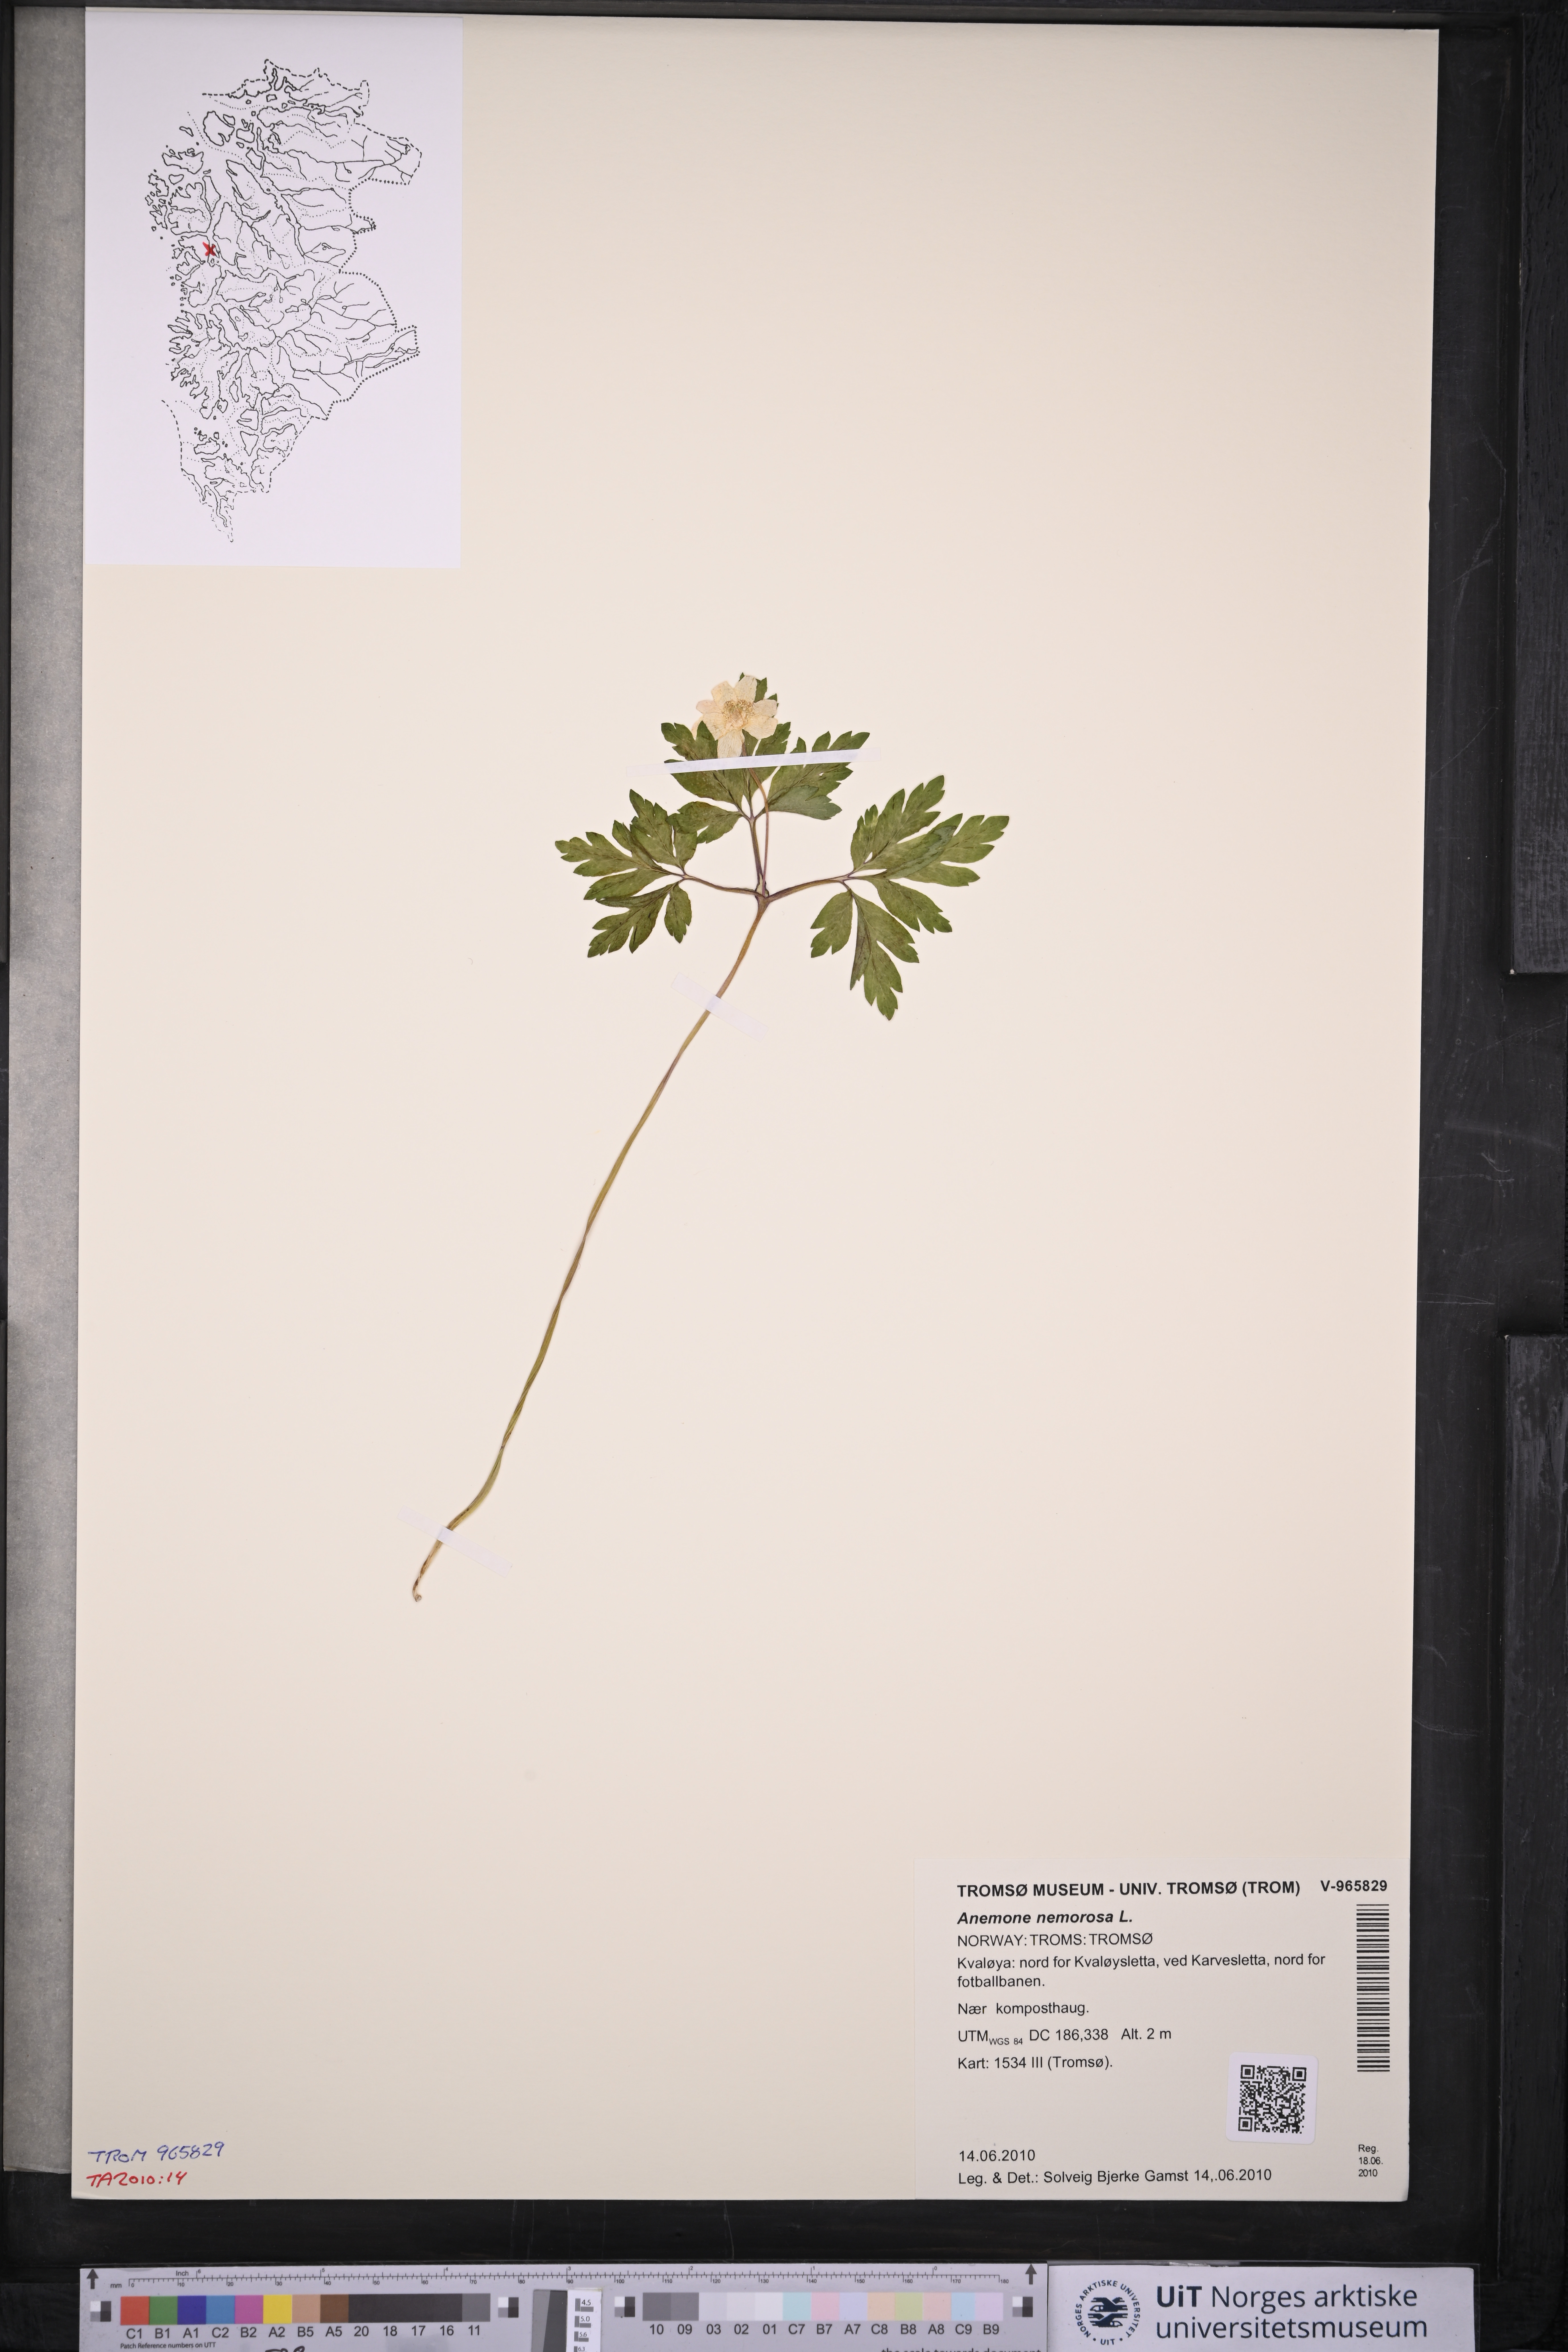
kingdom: Plantae
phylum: Tracheophyta
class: Magnoliopsida
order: Ranunculales
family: Ranunculaceae
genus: Anemone
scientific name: Anemone nemorosa
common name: Wood anemone
